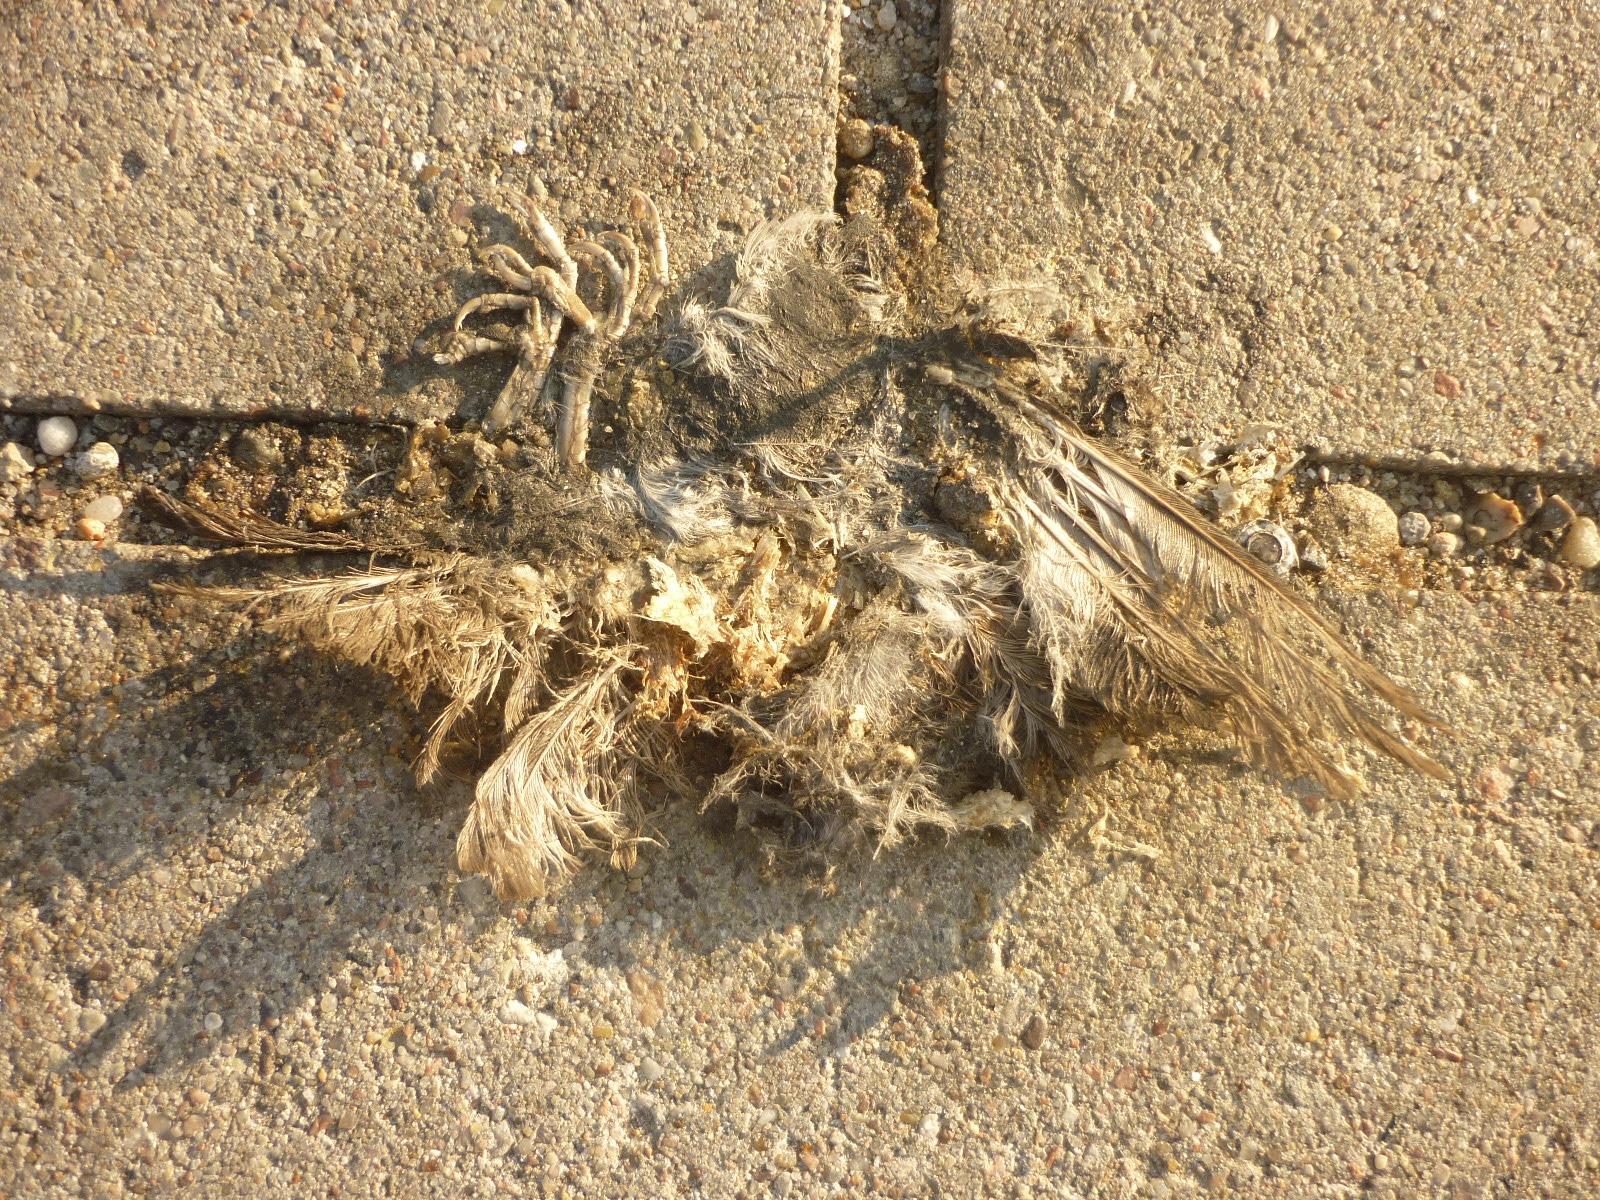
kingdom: Animalia
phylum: Chordata
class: Aves
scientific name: Aves
